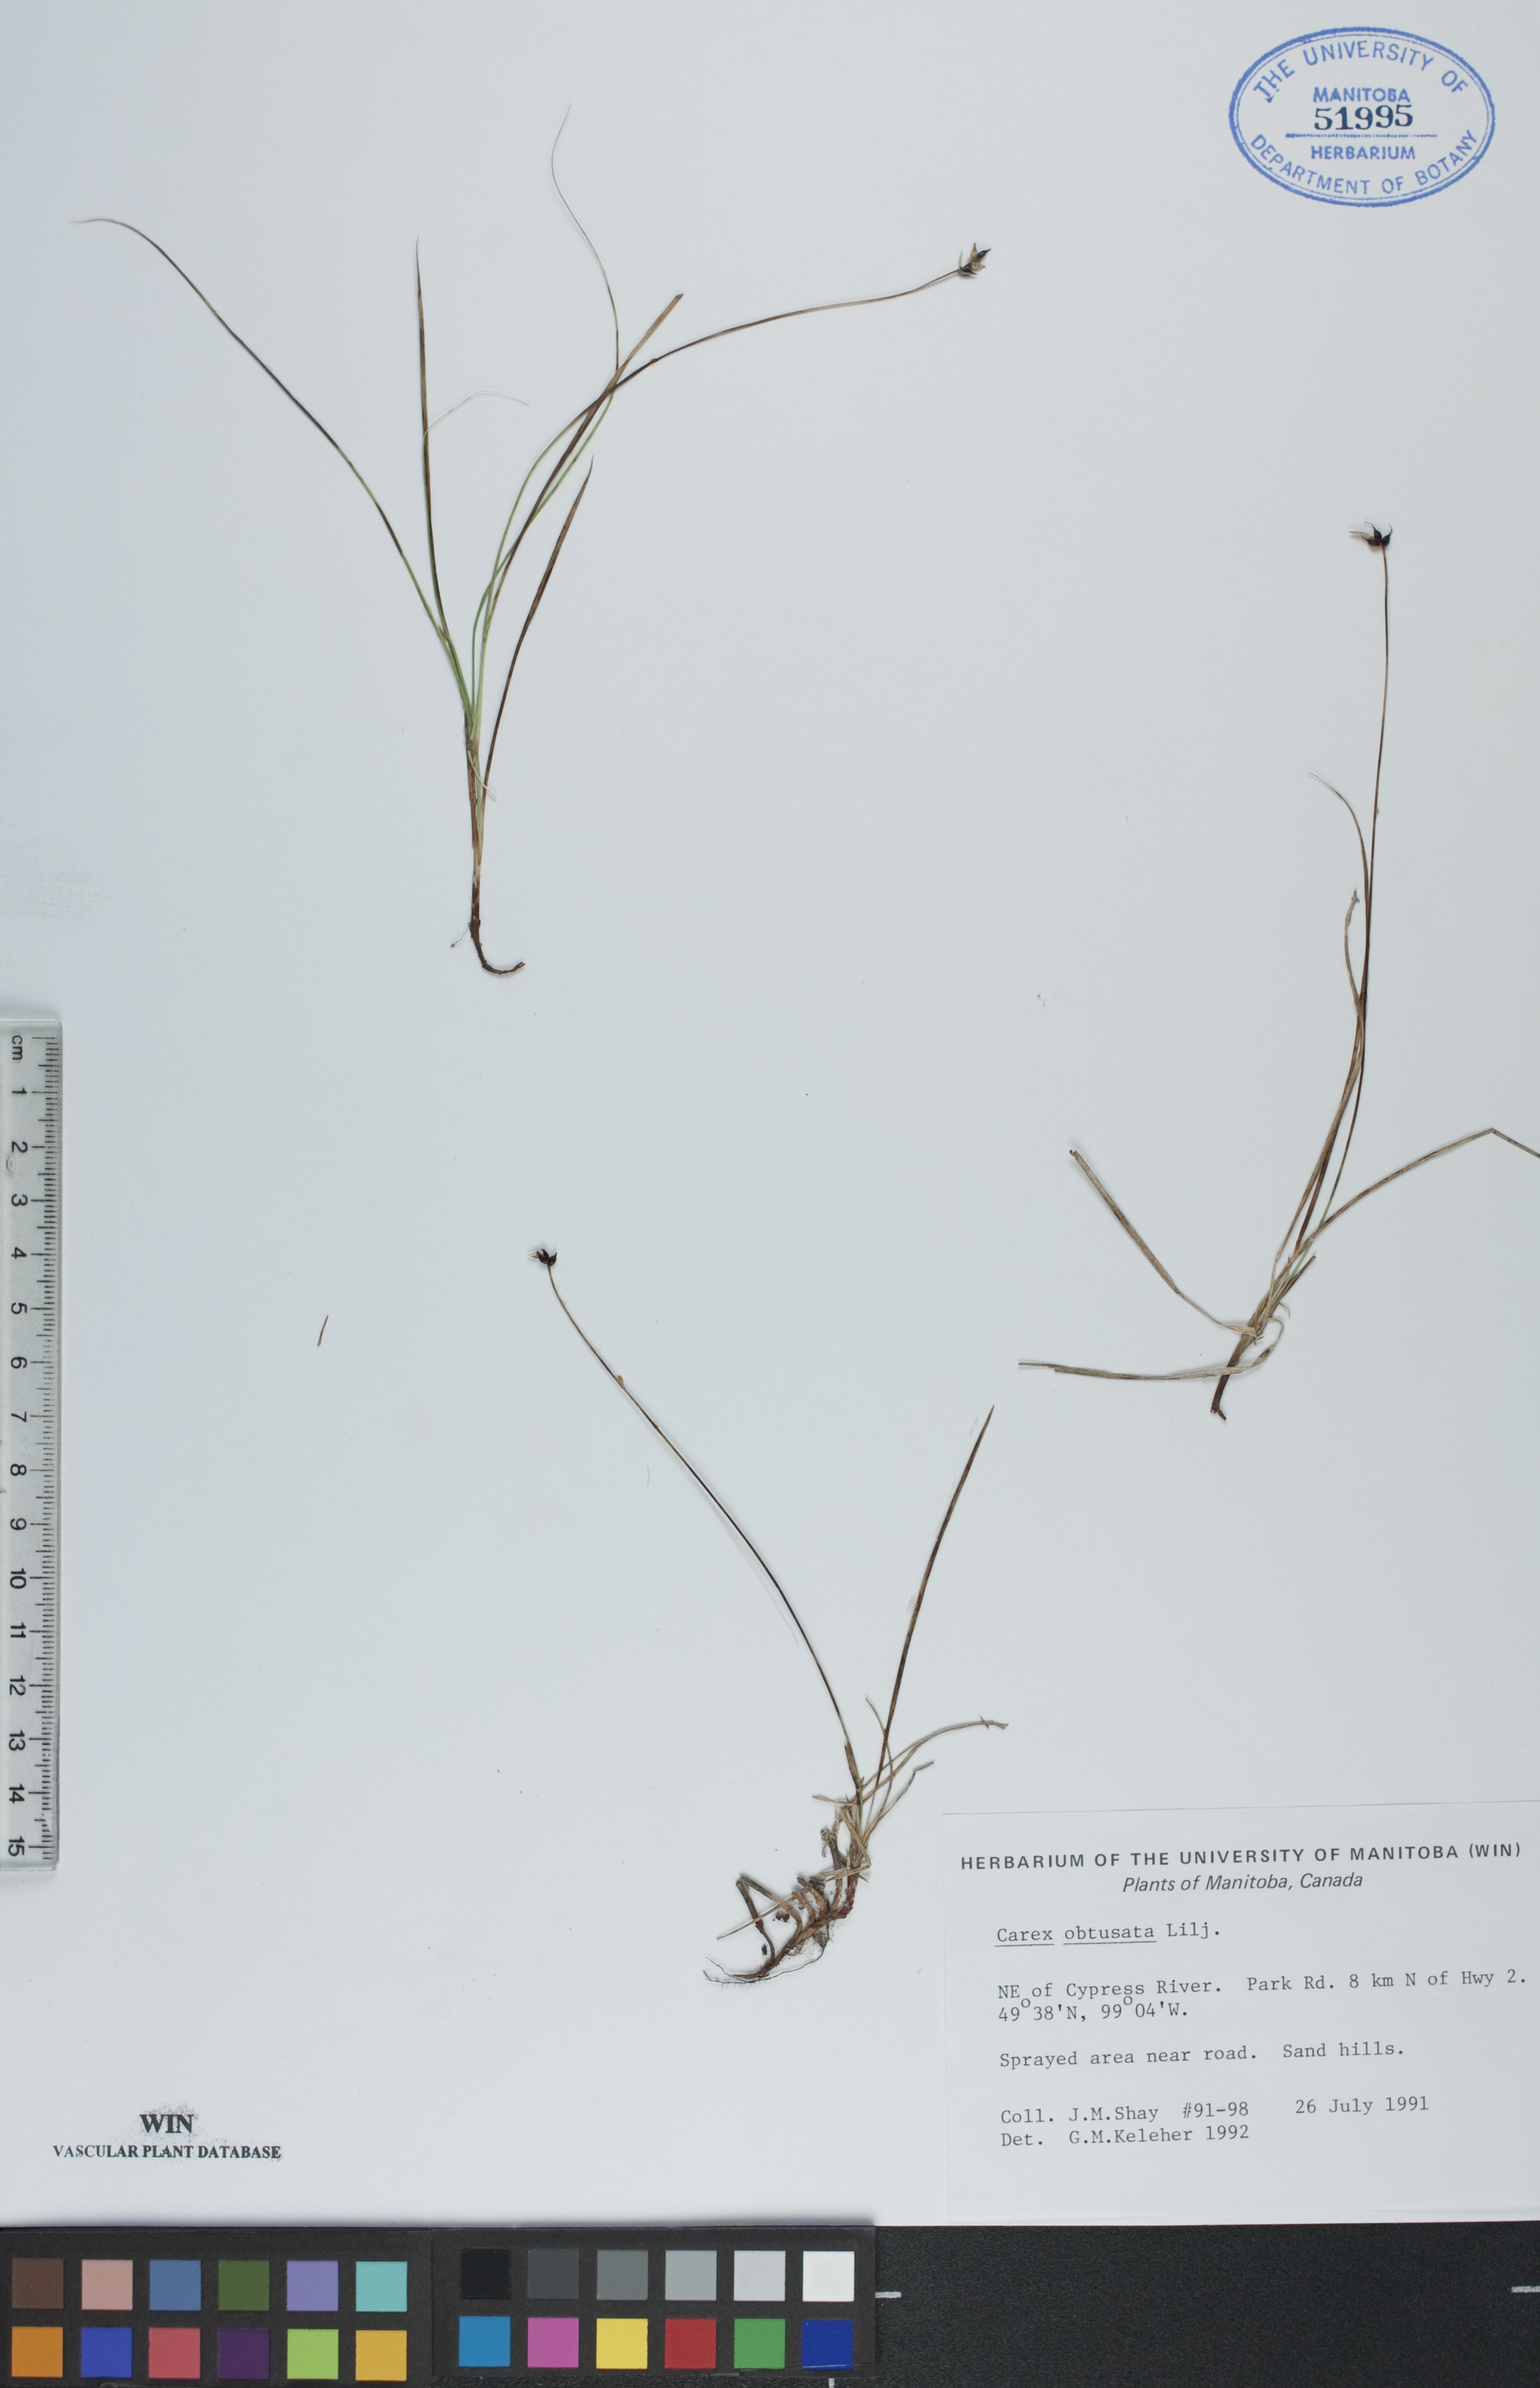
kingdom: Plantae
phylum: Tracheophyta
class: Liliopsida
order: Poales
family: Cyperaceae
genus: Carex
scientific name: Carex obtusata
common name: Blunt sedge
